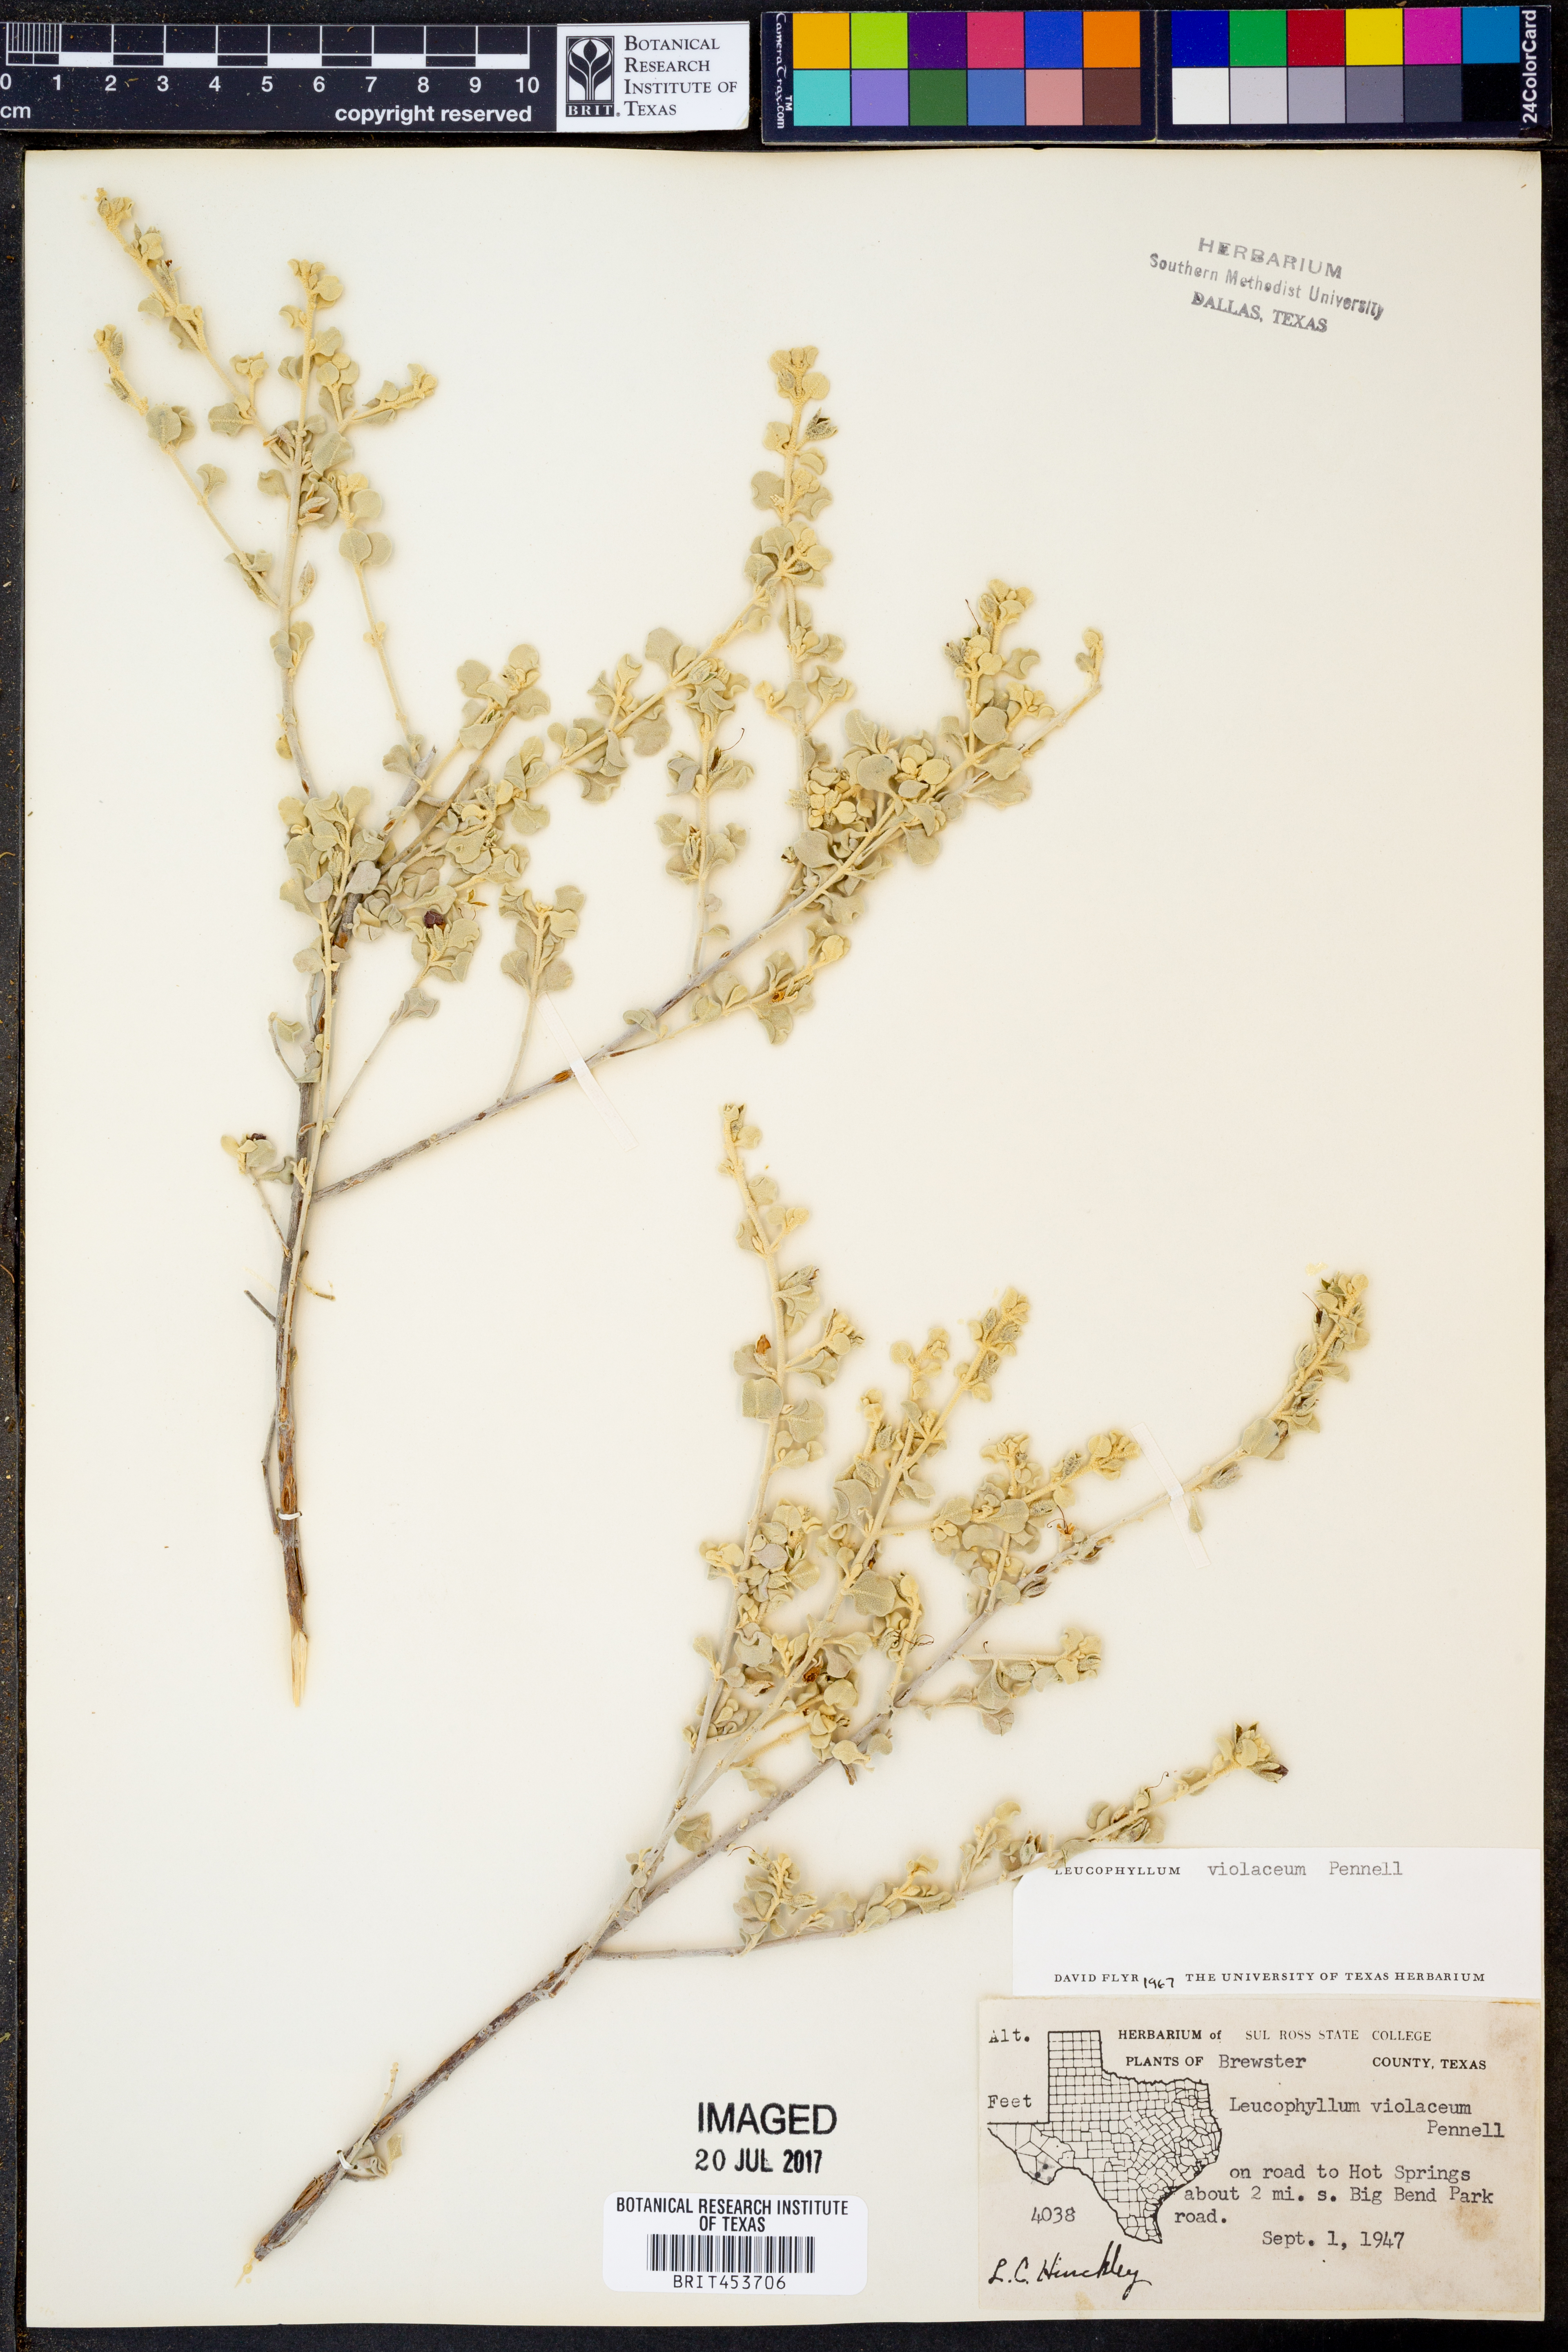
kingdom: Plantae
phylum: Tracheophyta
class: Magnoliopsida
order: Lamiales
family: Scrophulariaceae
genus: Leucophyllum
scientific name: Leucophyllum candidum
